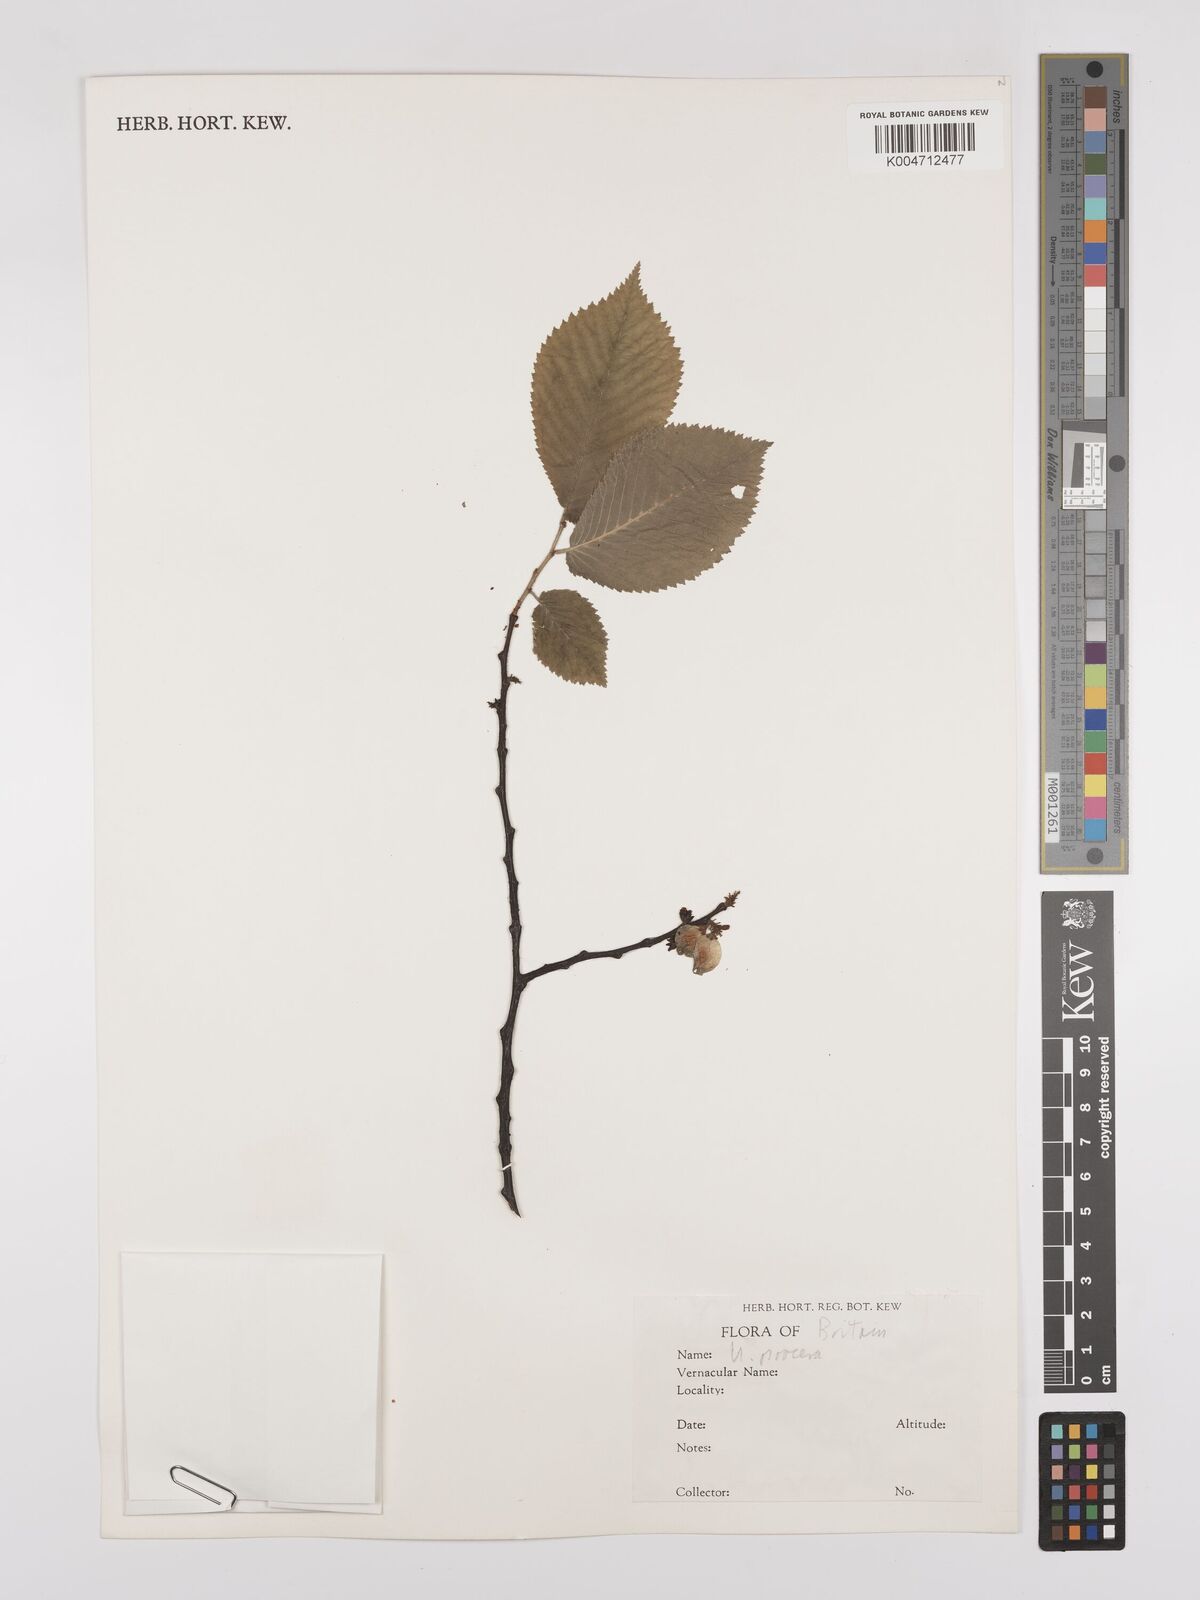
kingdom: Plantae
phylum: Tracheophyta
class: Magnoliopsida
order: Rosales
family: Ulmaceae
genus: Ulmus
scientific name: Ulmus minor
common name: Small-leaved elm
